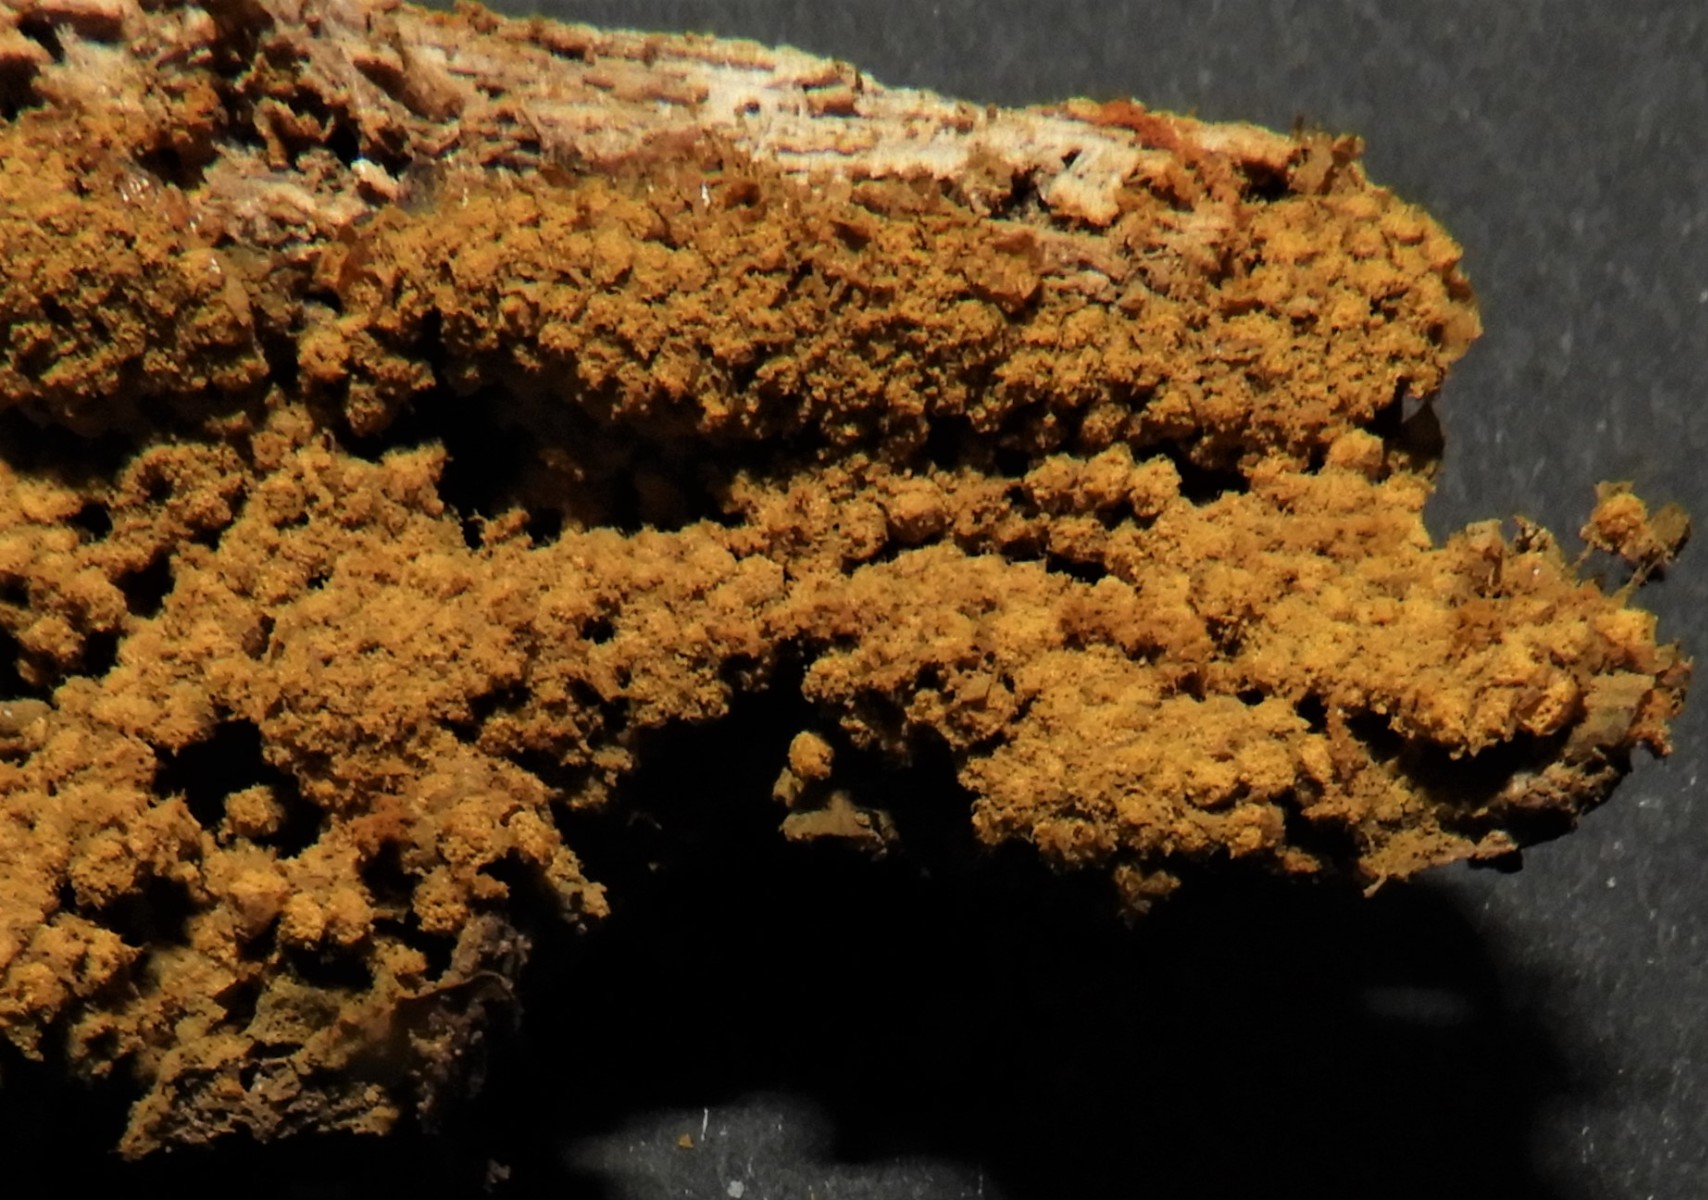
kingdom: Protozoa
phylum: Mycetozoa
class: Myxomycetes
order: Trichiales
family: Trichiaceae
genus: Trichia
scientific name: Trichia
